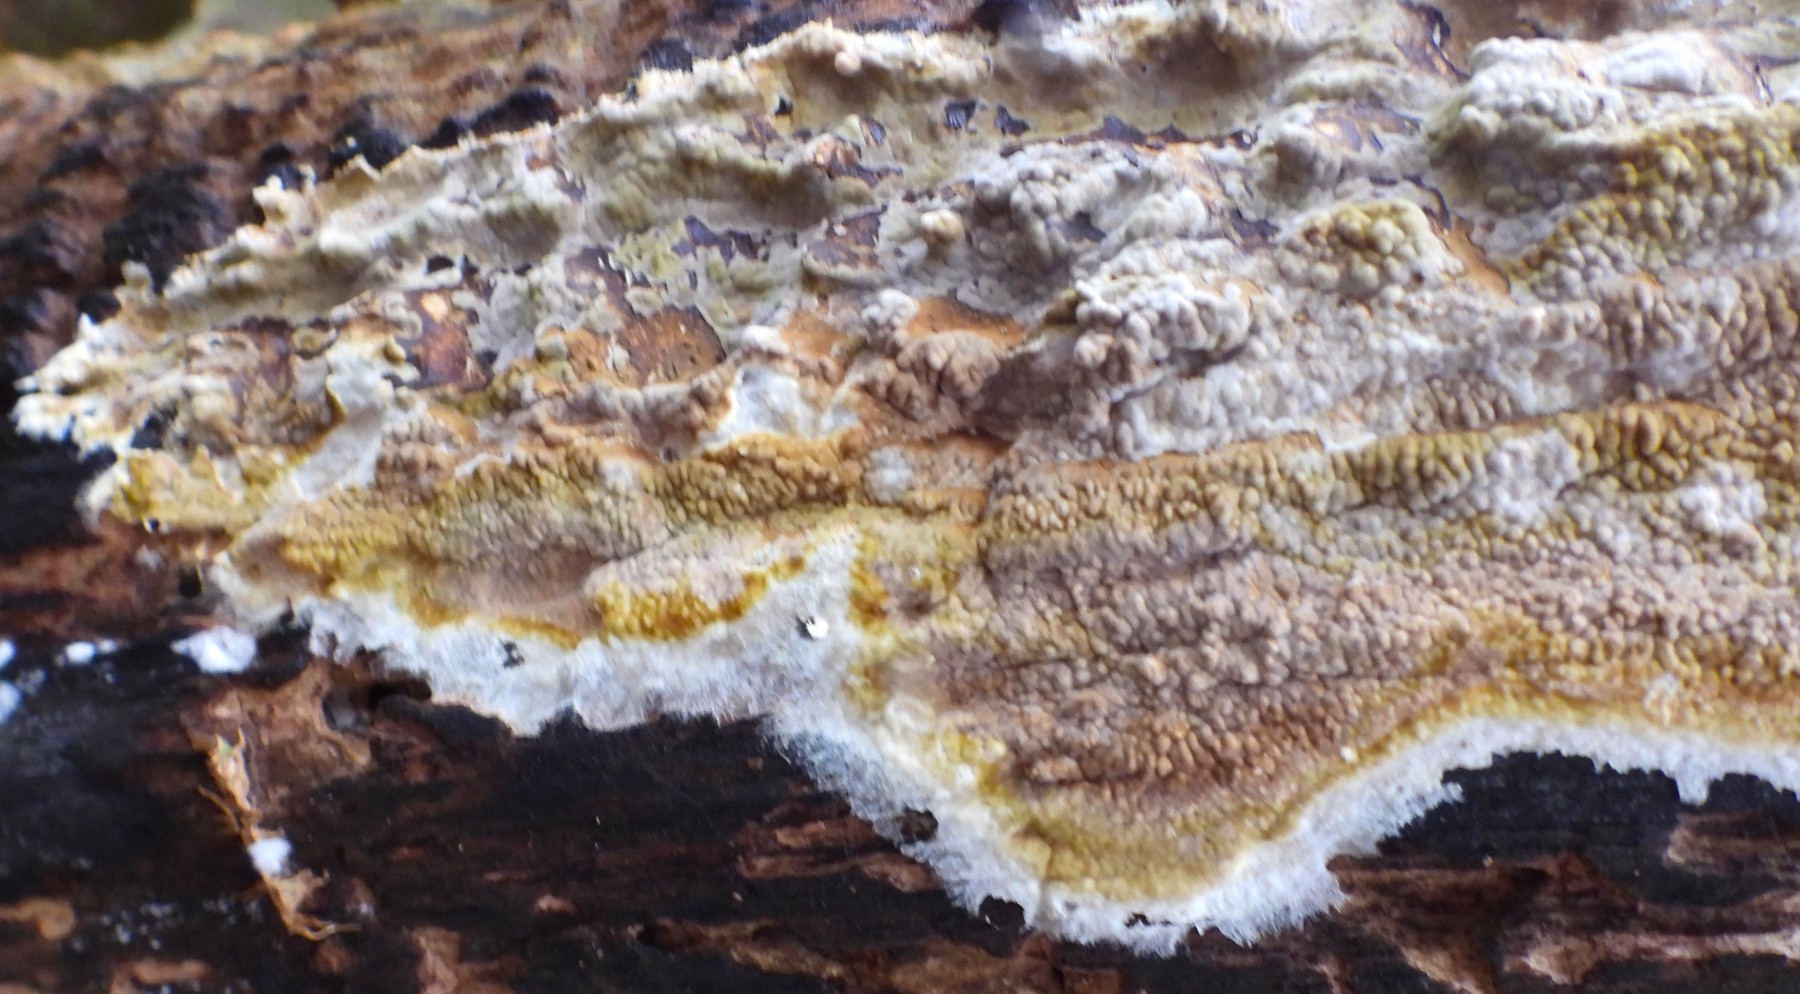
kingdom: Fungi
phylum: Basidiomycota
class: Agaricomycetes
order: Boletales
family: Coniophoraceae
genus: Coniophora
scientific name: Coniophora puteana
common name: gul tømmersvamp
